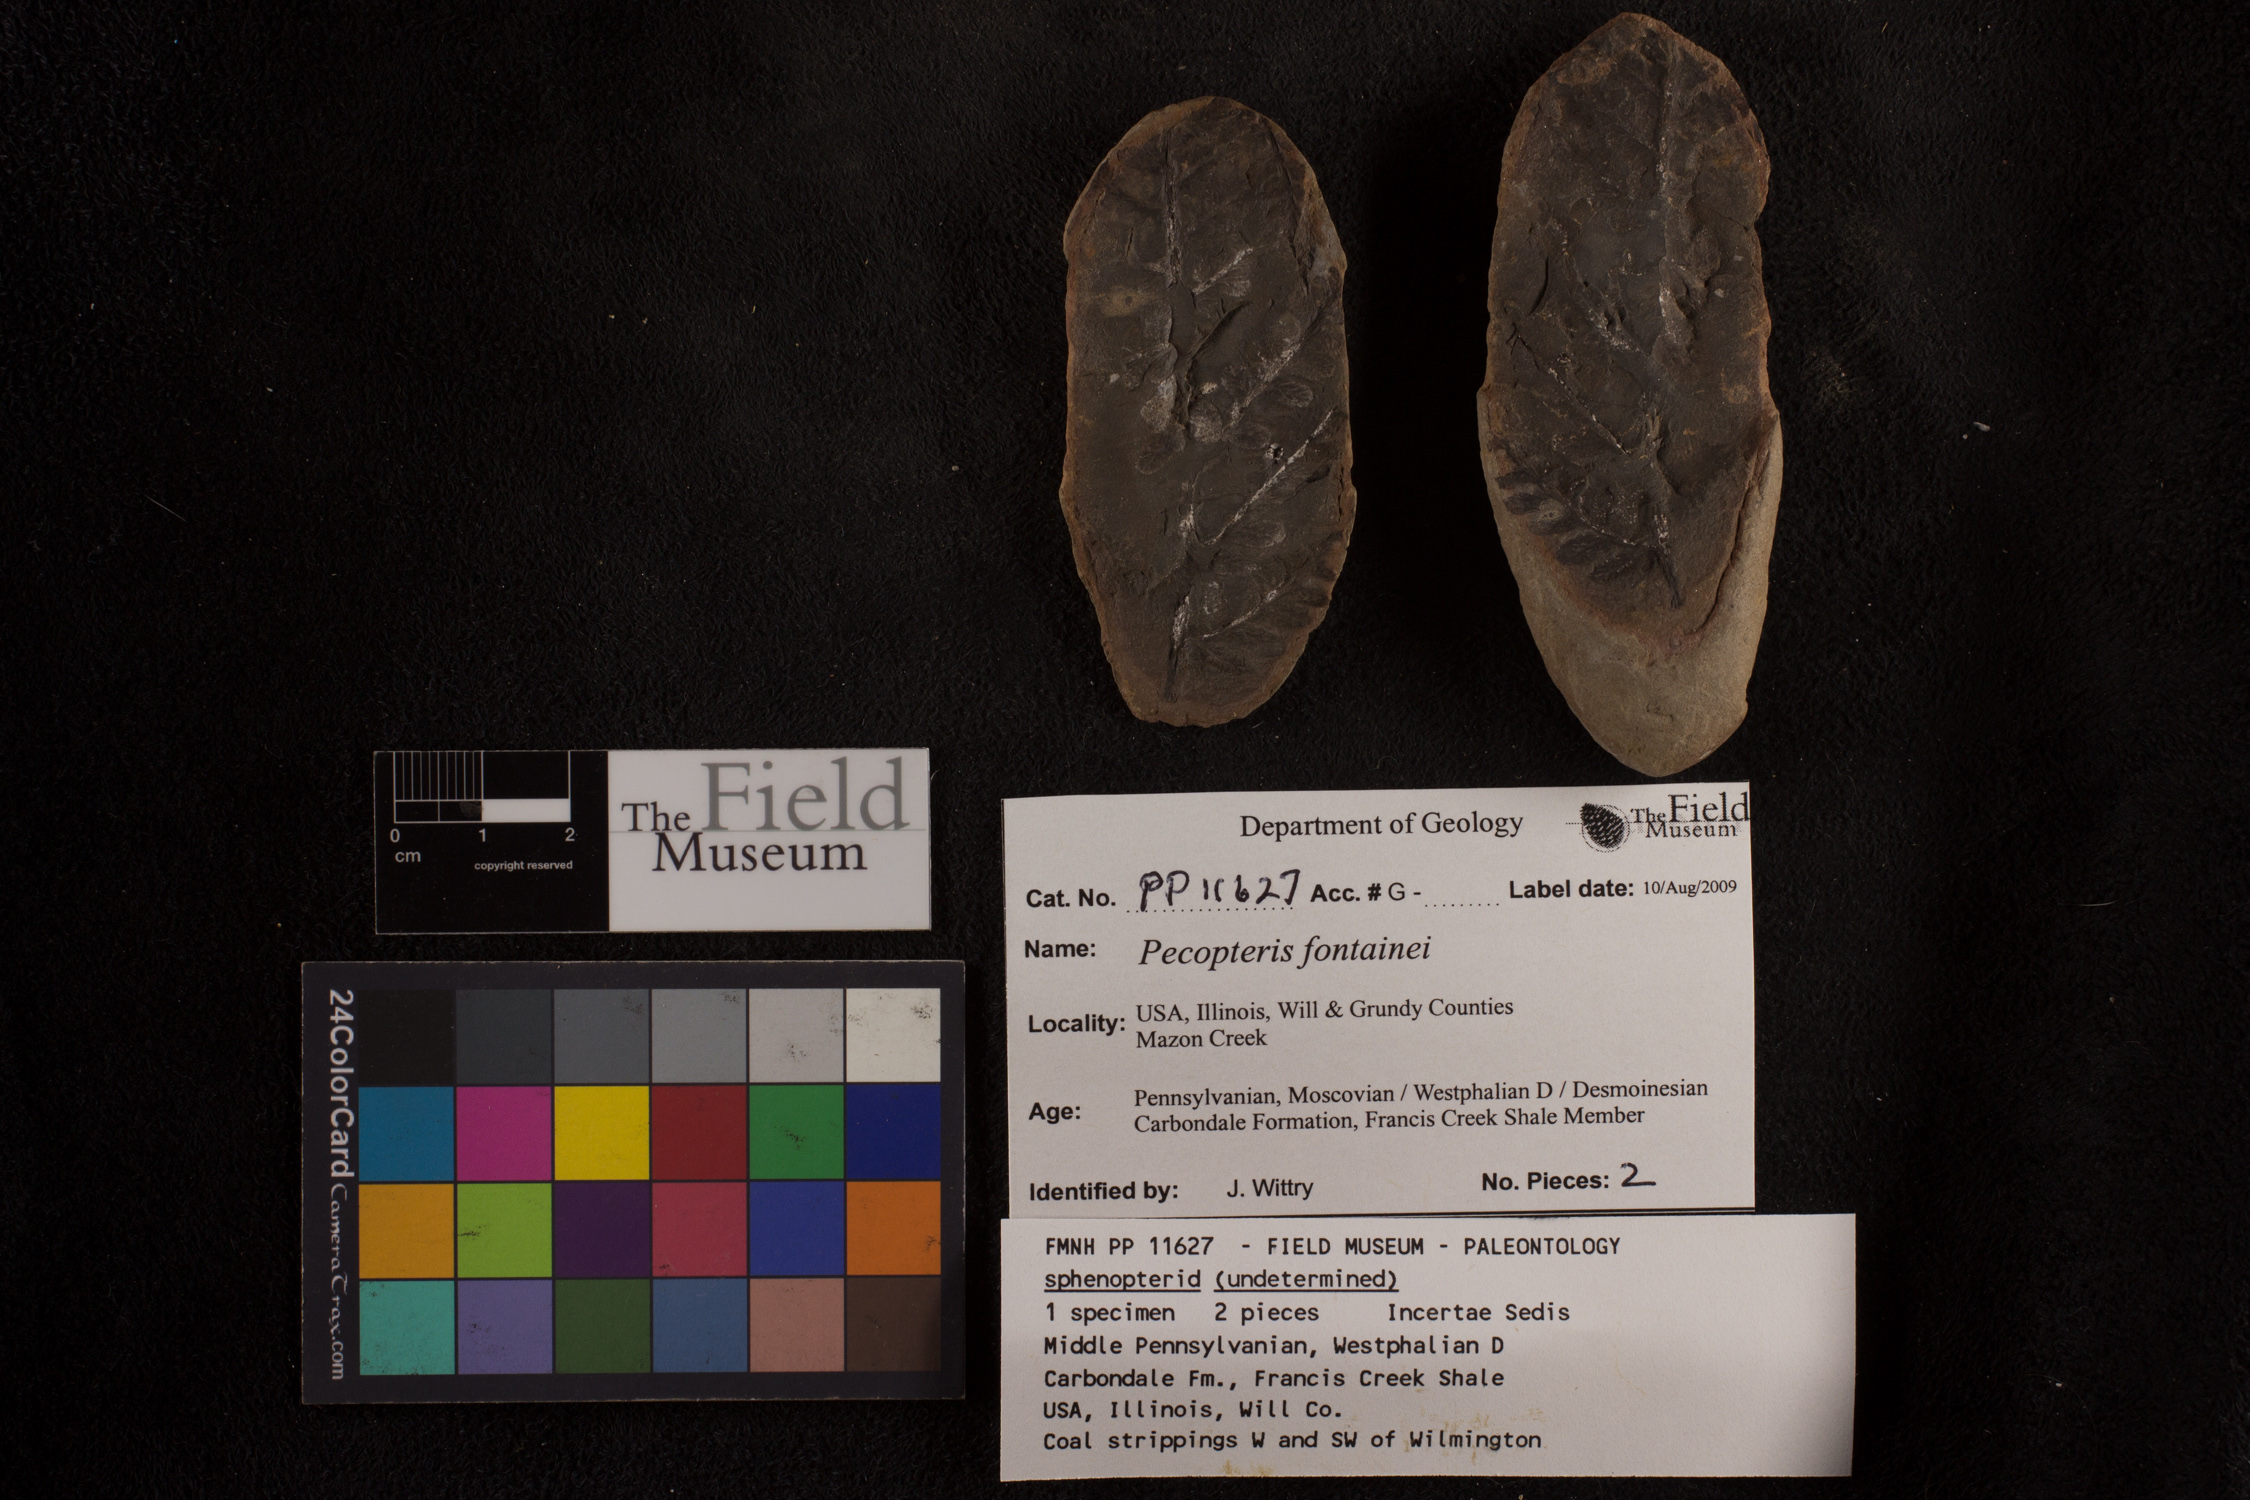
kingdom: Plantae
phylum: Tracheophyta
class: Polypodiopsida
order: Marattiales
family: Asterothecaceae
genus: Pecopteris
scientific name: Pecopteris
